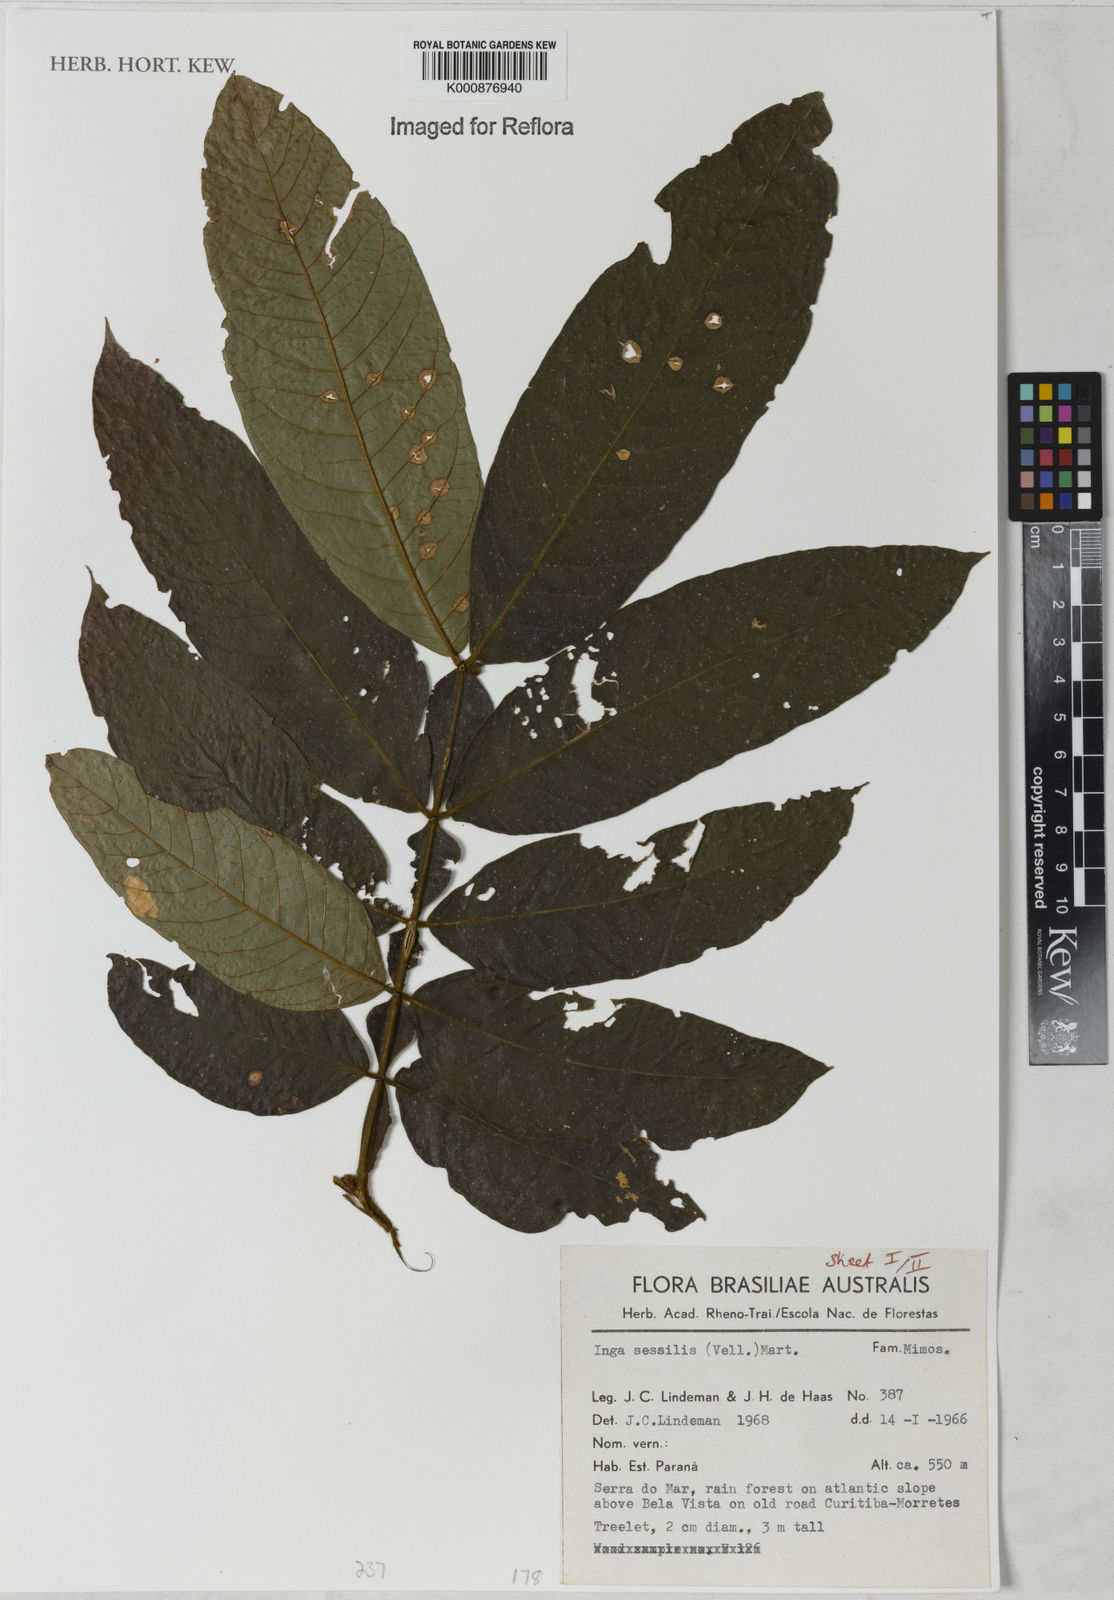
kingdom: Plantae
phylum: Tracheophyta
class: Magnoliopsida
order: Fabales
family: Fabaceae
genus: Inga
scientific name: Inga sessilis
